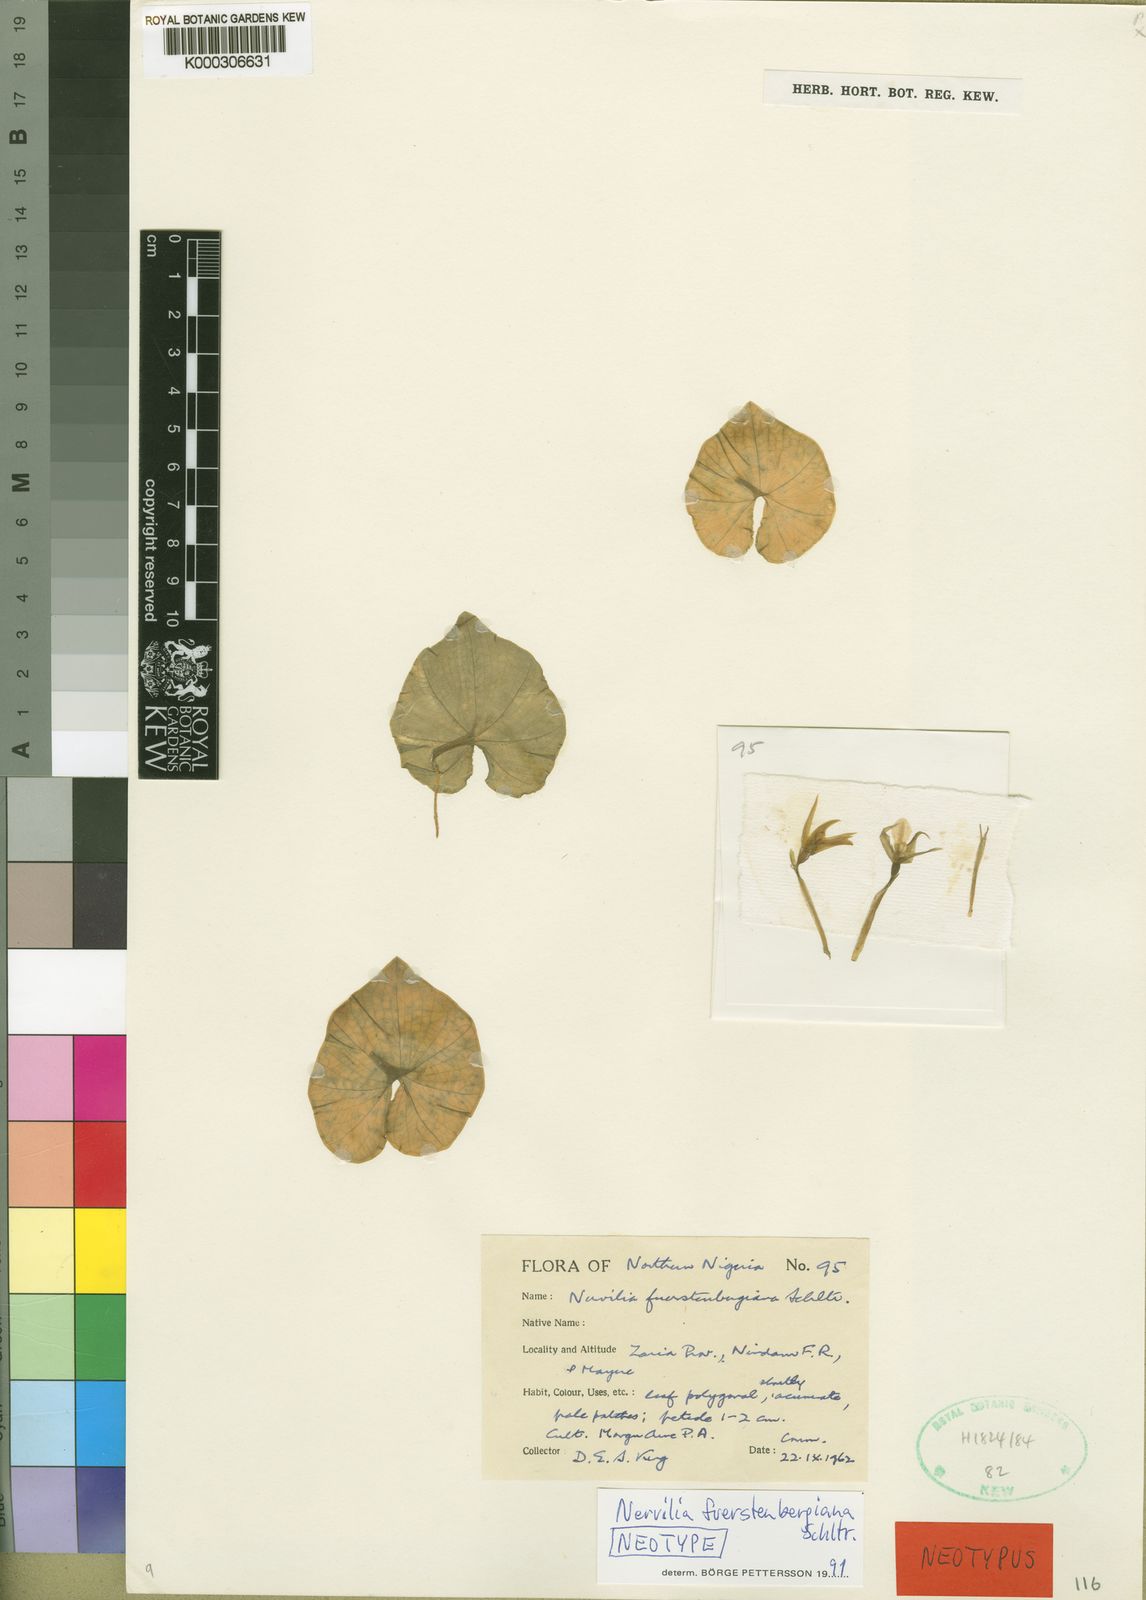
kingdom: Plantae
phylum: Tracheophyta
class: Liliopsida
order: Asparagales
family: Orchidaceae
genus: Nervilia
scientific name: Nervilia fuerstenbergiana
